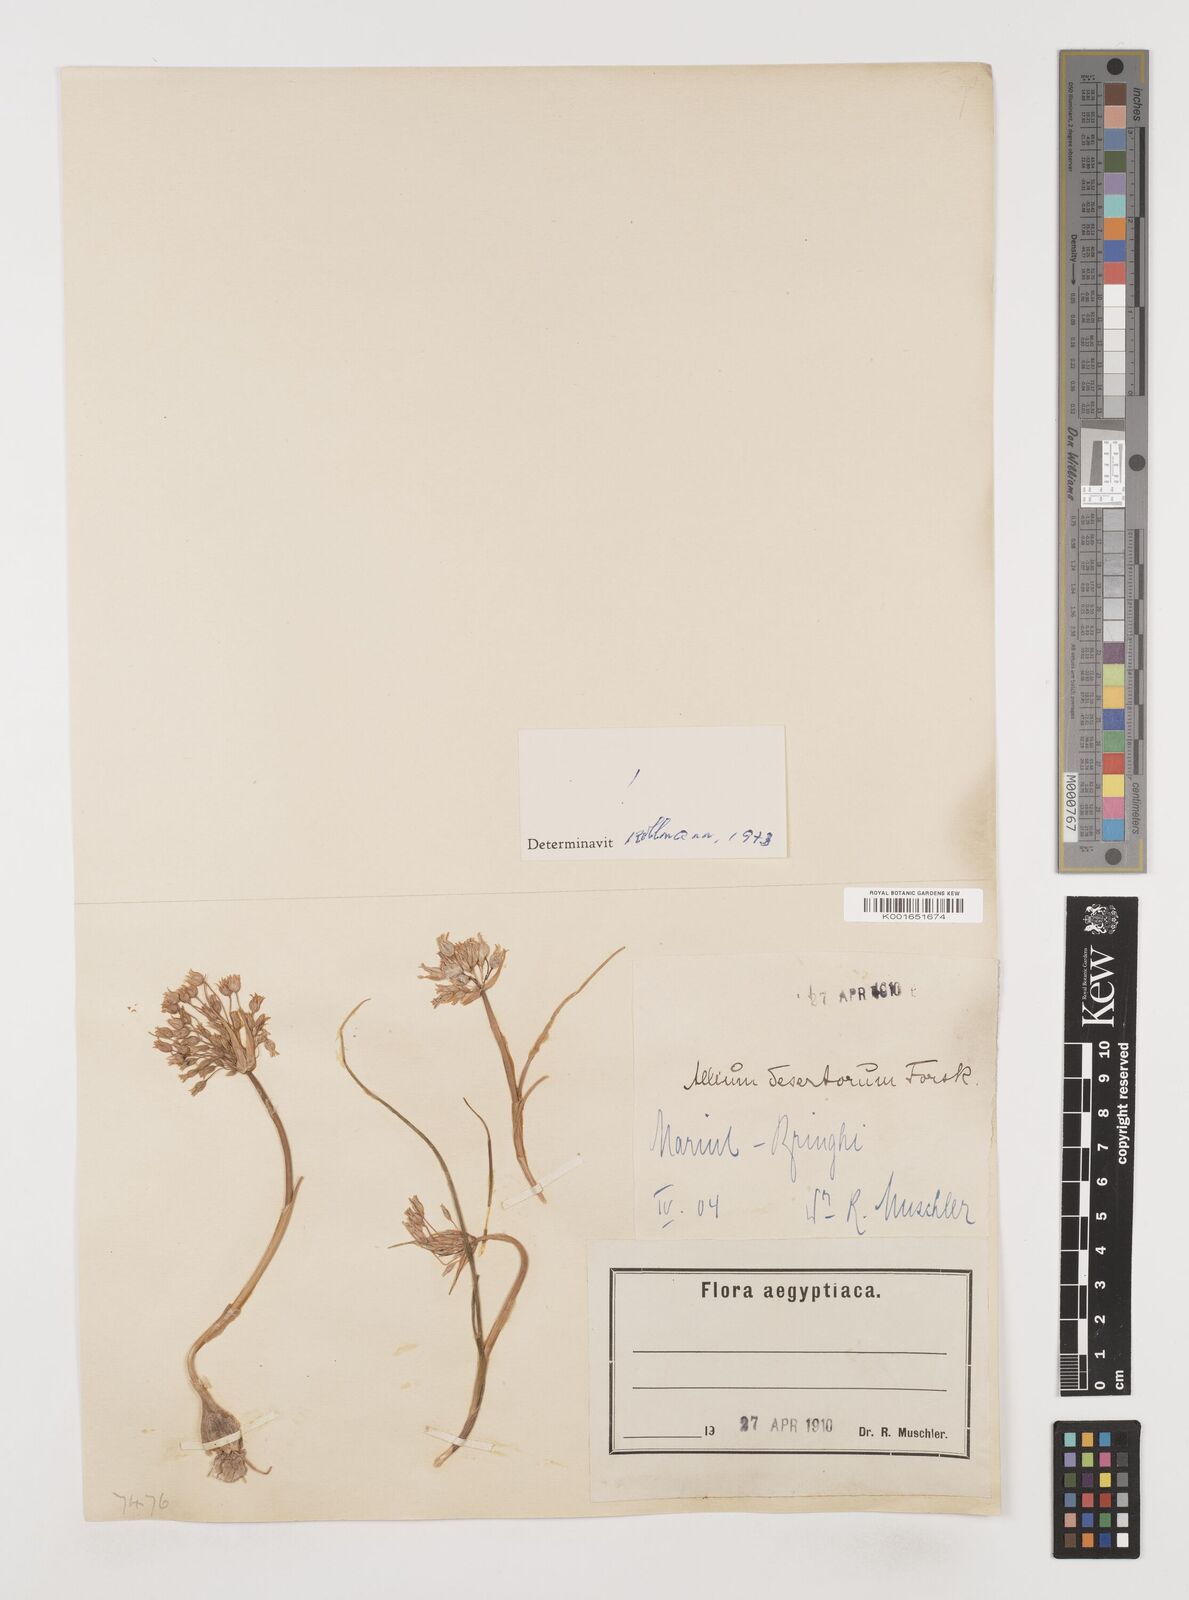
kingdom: Plantae
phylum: Tracheophyta
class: Liliopsida
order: Asparagales
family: Amaryllidaceae
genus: Allium
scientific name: Allium desertorum
